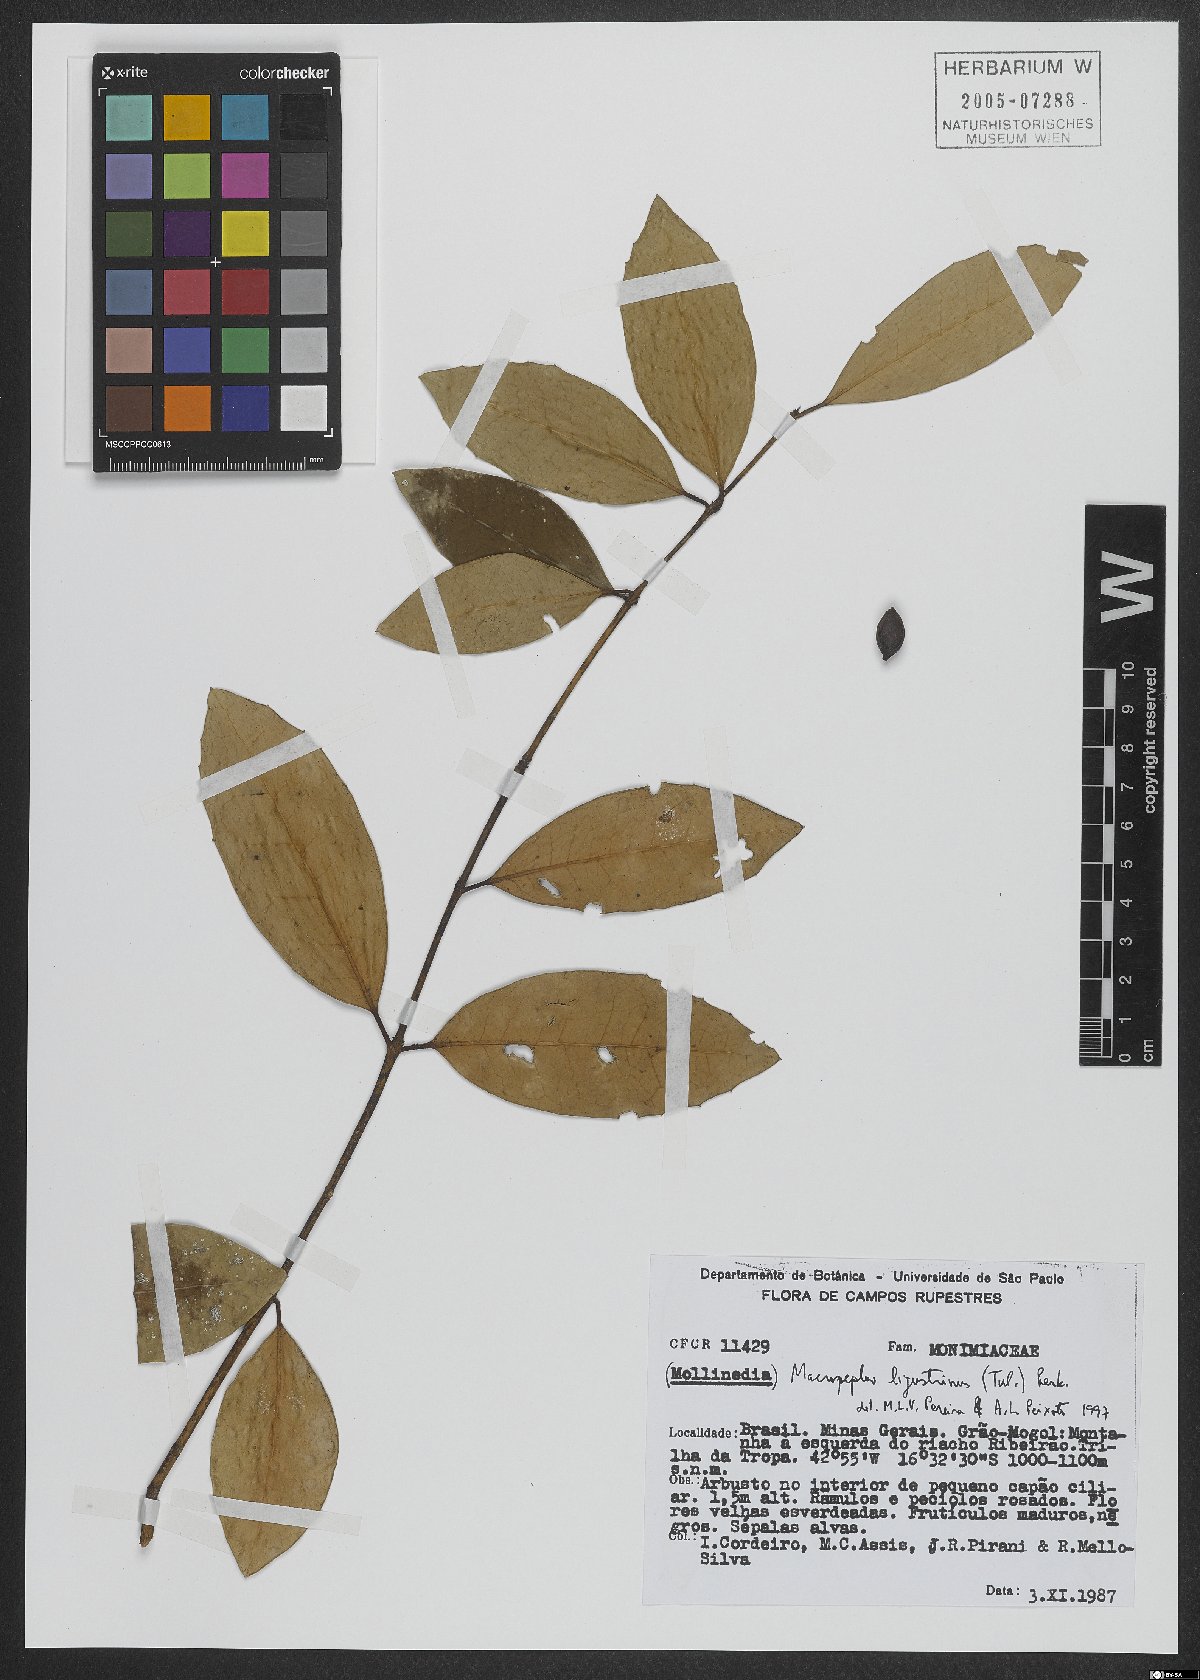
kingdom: Plantae
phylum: Tracheophyta
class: Magnoliopsida
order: Laurales
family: Monimiaceae
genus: Macropeplus
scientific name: Macropeplus ligustrinus
